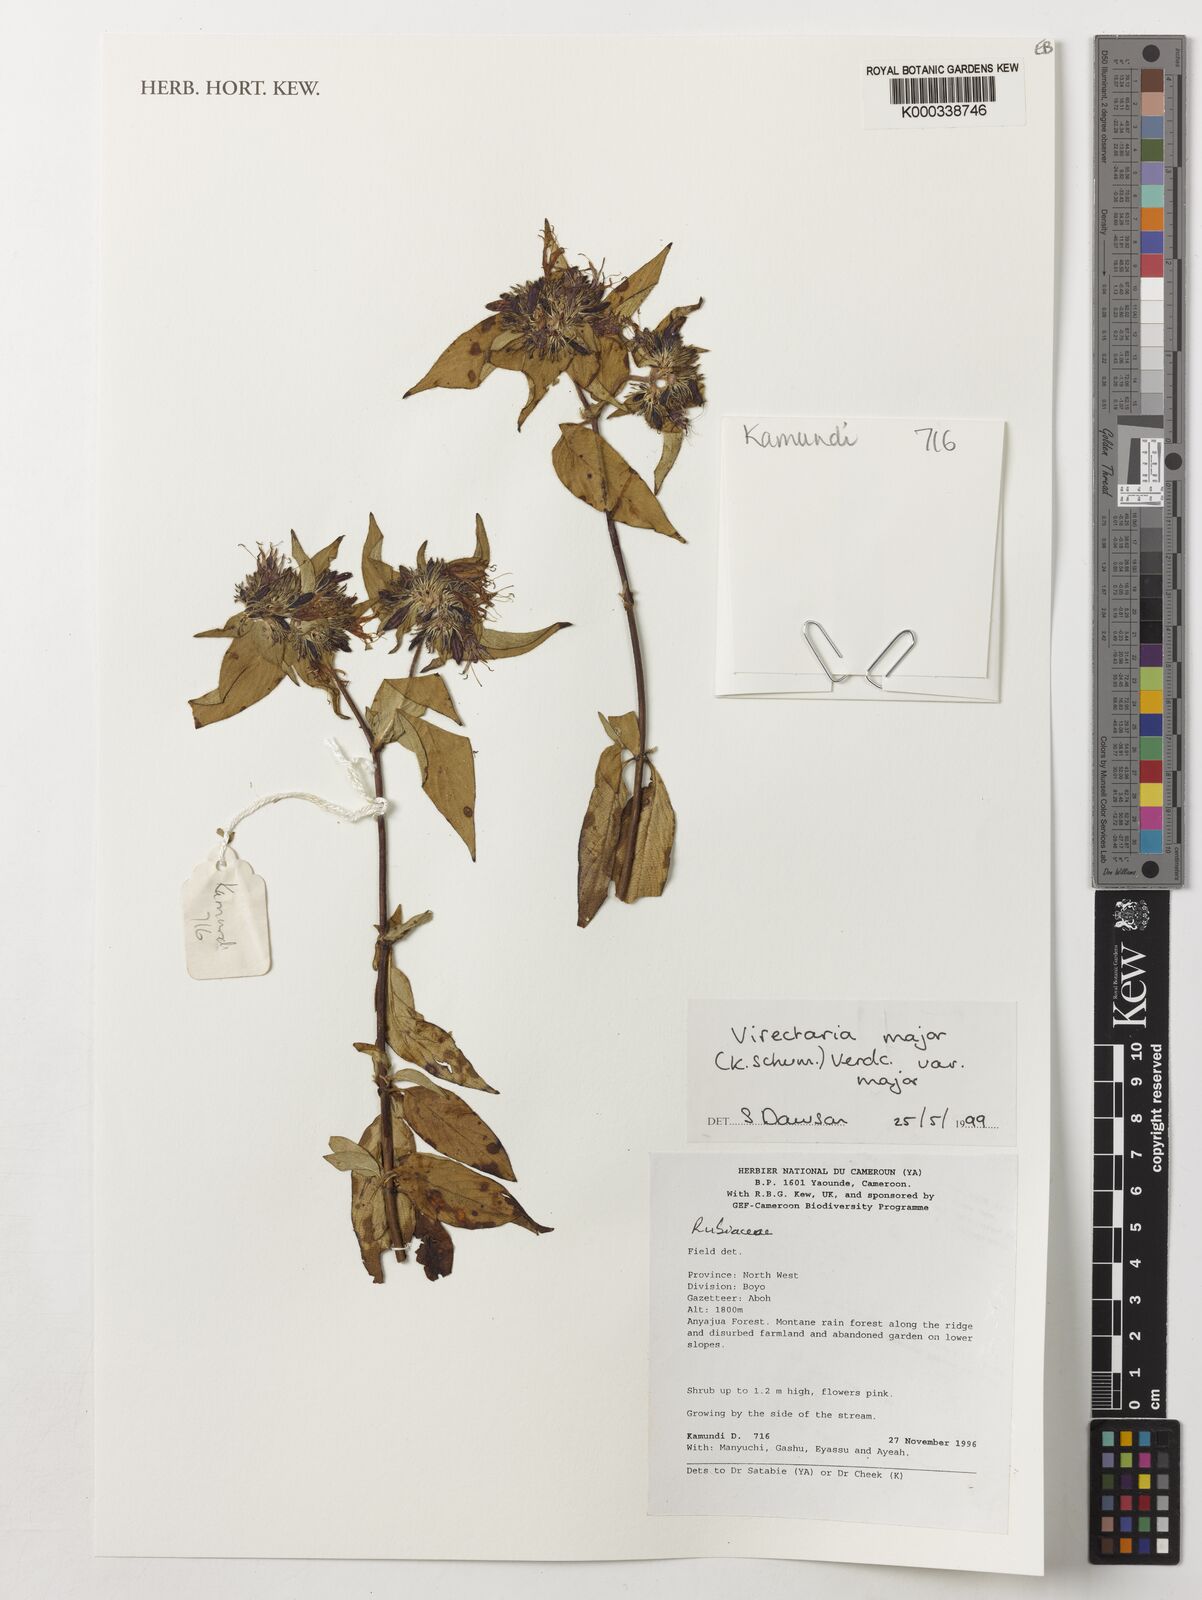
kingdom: Plantae
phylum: Tracheophyta
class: Magnoliopsida
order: Gentianales
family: Rubiaceae
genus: Virectaria
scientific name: Virectaria major
